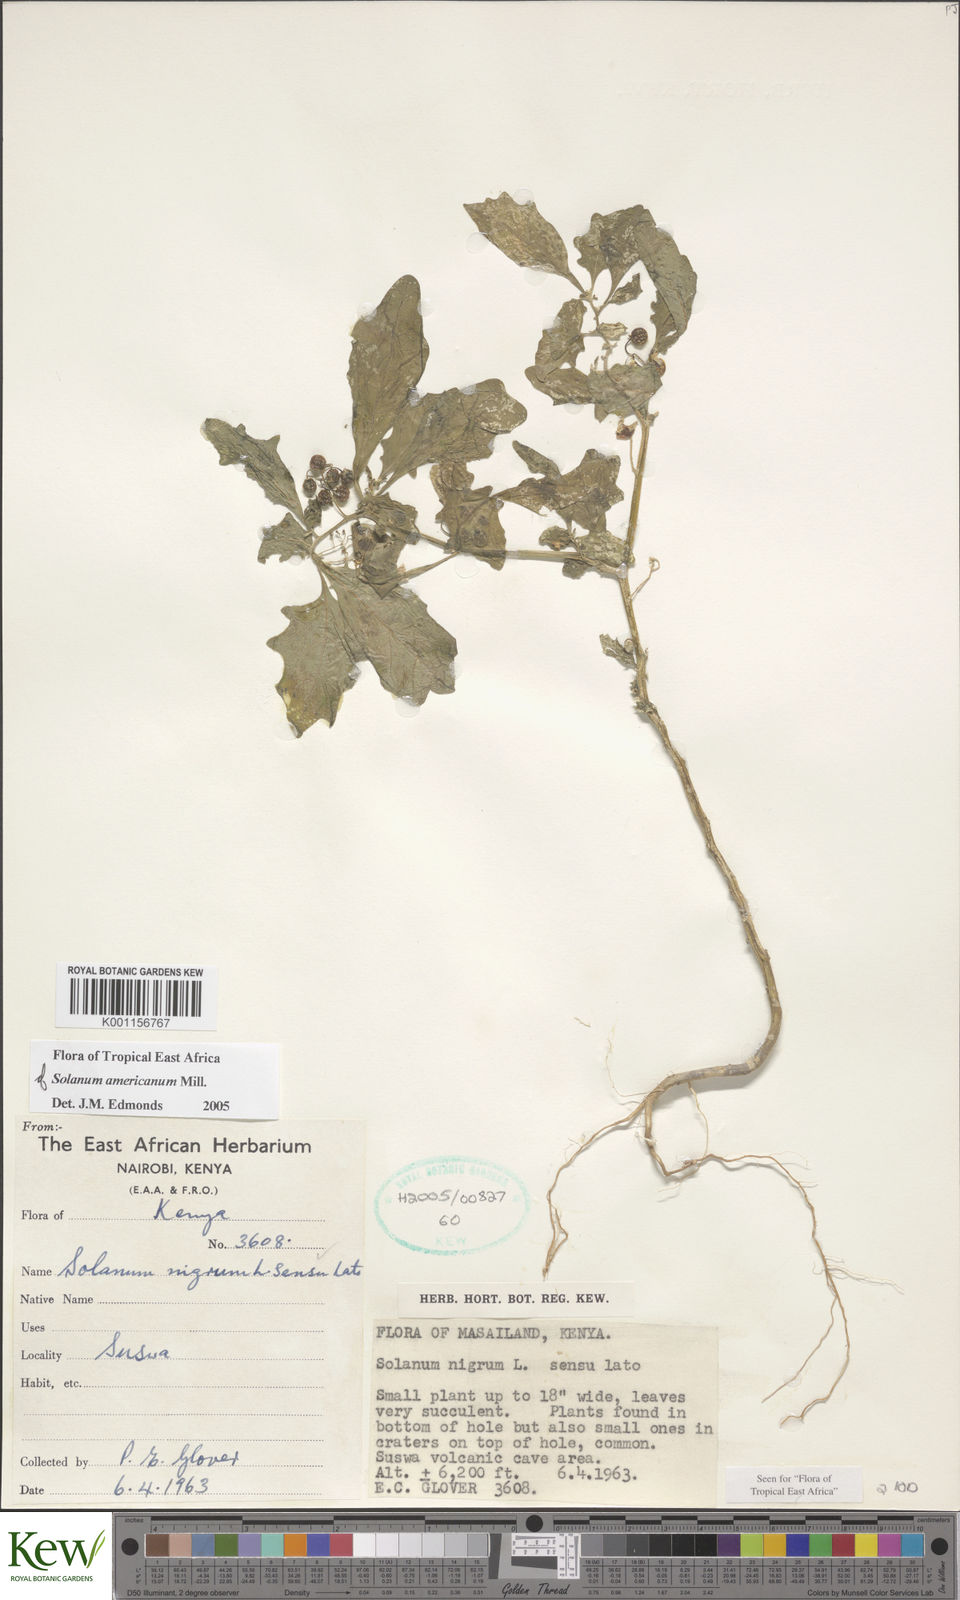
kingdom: Plantae
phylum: Tracheophyta
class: Magnoliopsida
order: Solanales
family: Solanaceae
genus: Solanum
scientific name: Solanum americanum
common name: American black nightshade
